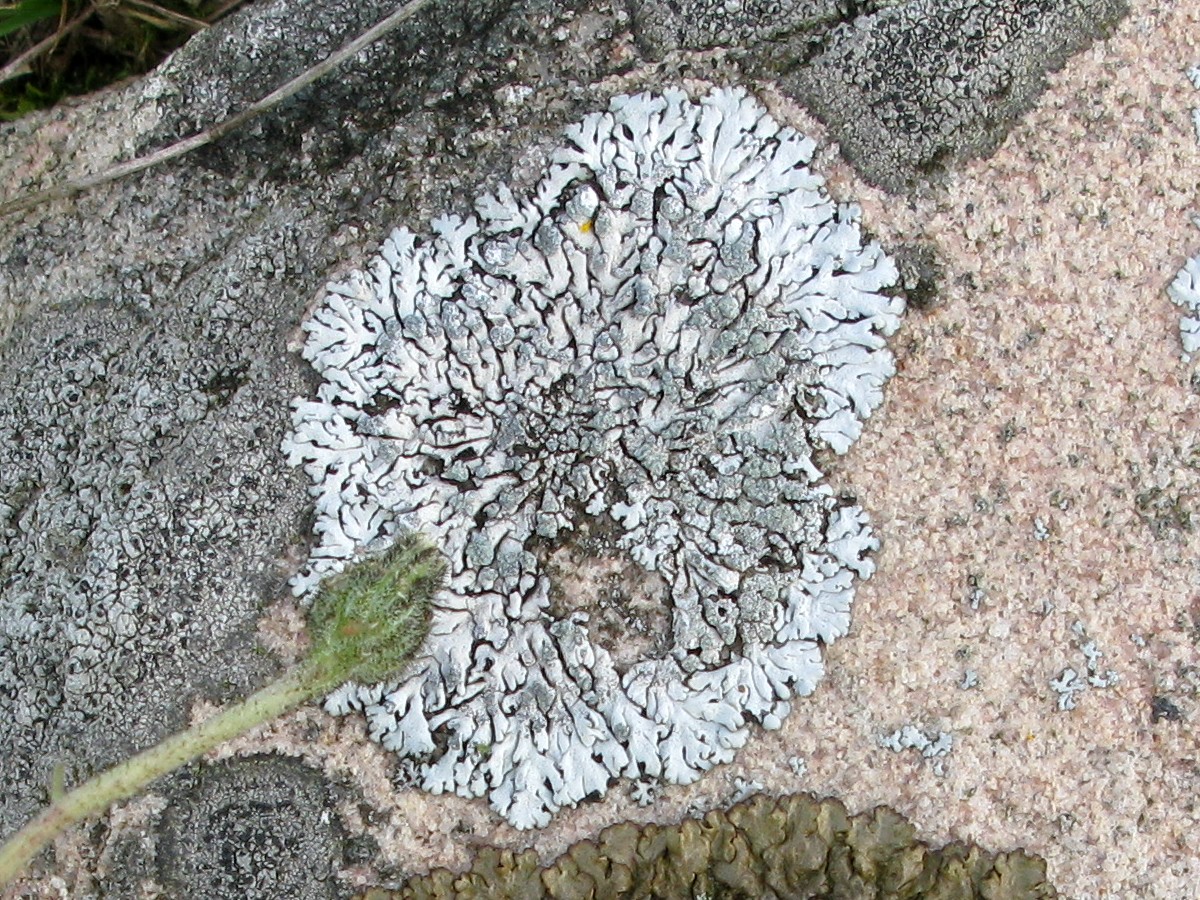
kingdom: Fungi
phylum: Ascomycota
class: Lecanoromycetes
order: Caliciales
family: Physciaceae
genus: Physcia
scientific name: Physcia caesia
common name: blågrå rosetlav
